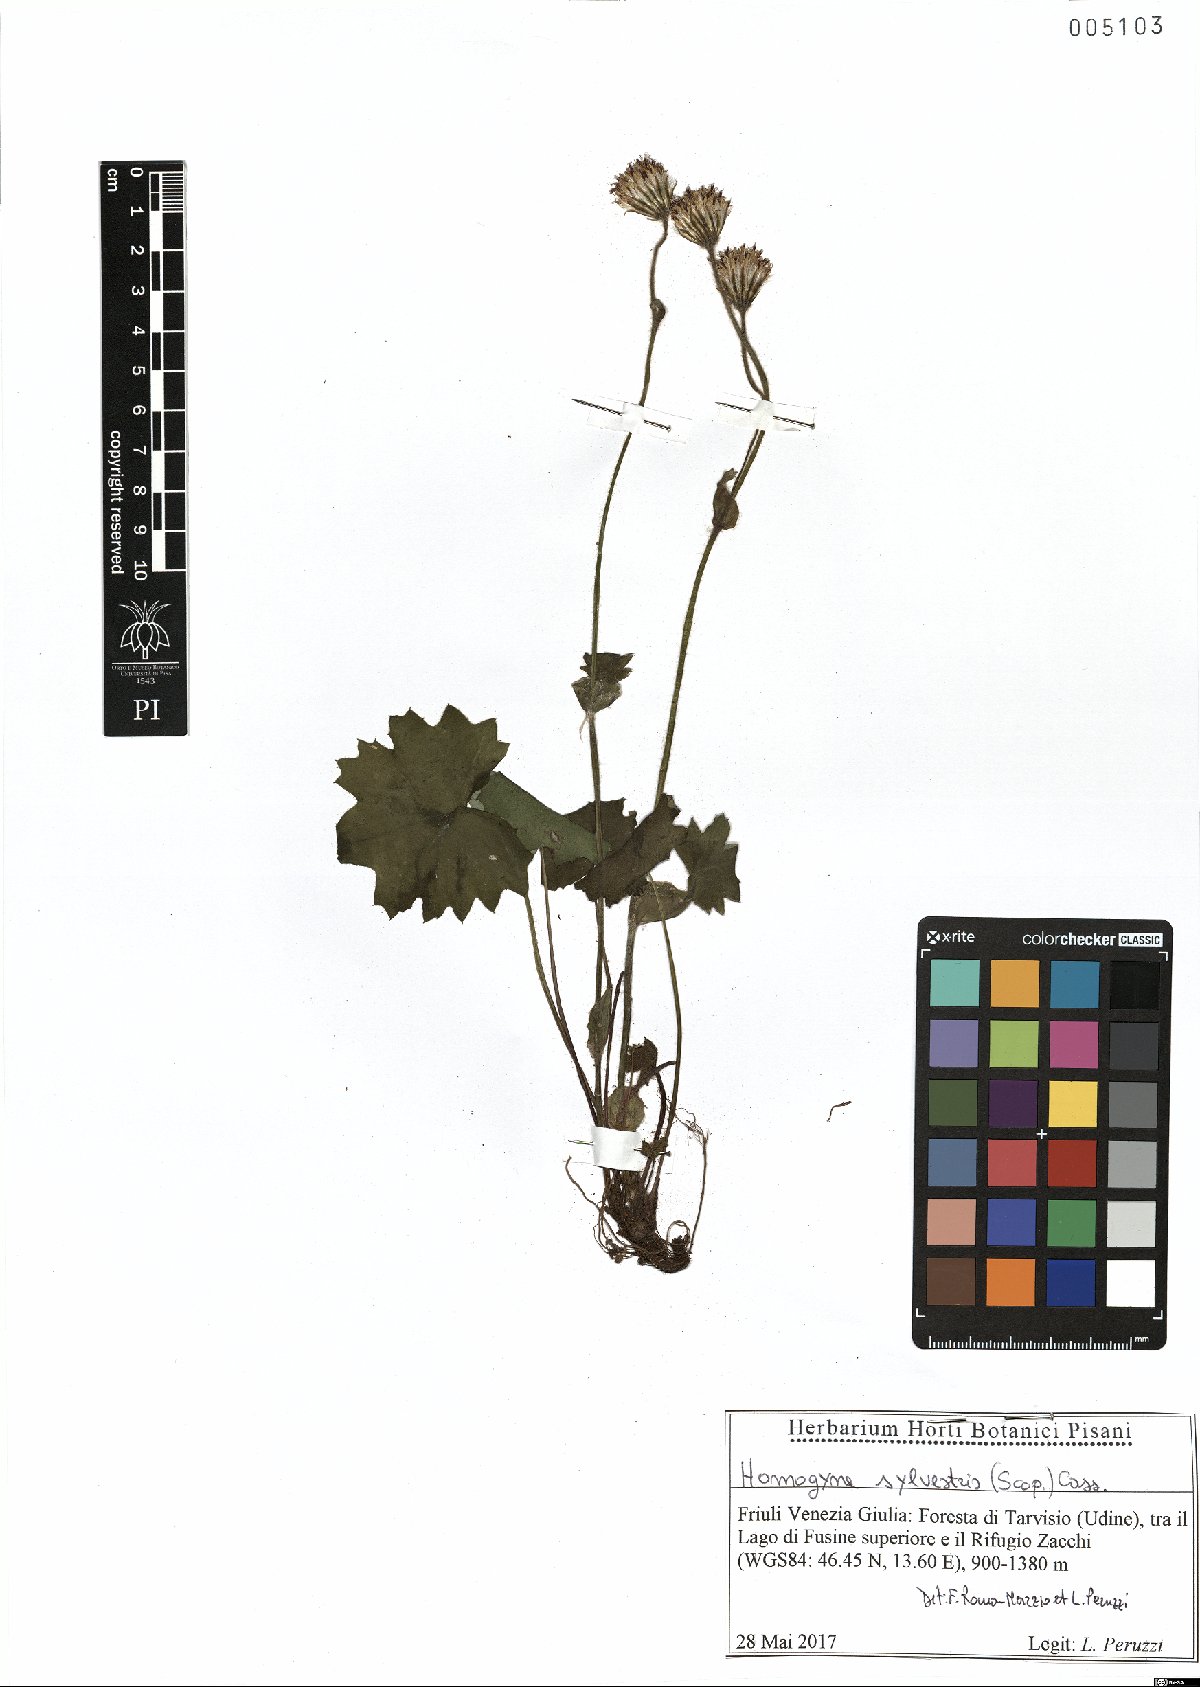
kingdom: Plantae
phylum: Tracheophyta
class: Magnoliopsida
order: Asterales
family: Asteraceae
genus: Homogyne
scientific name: Homogyne sylvestris
